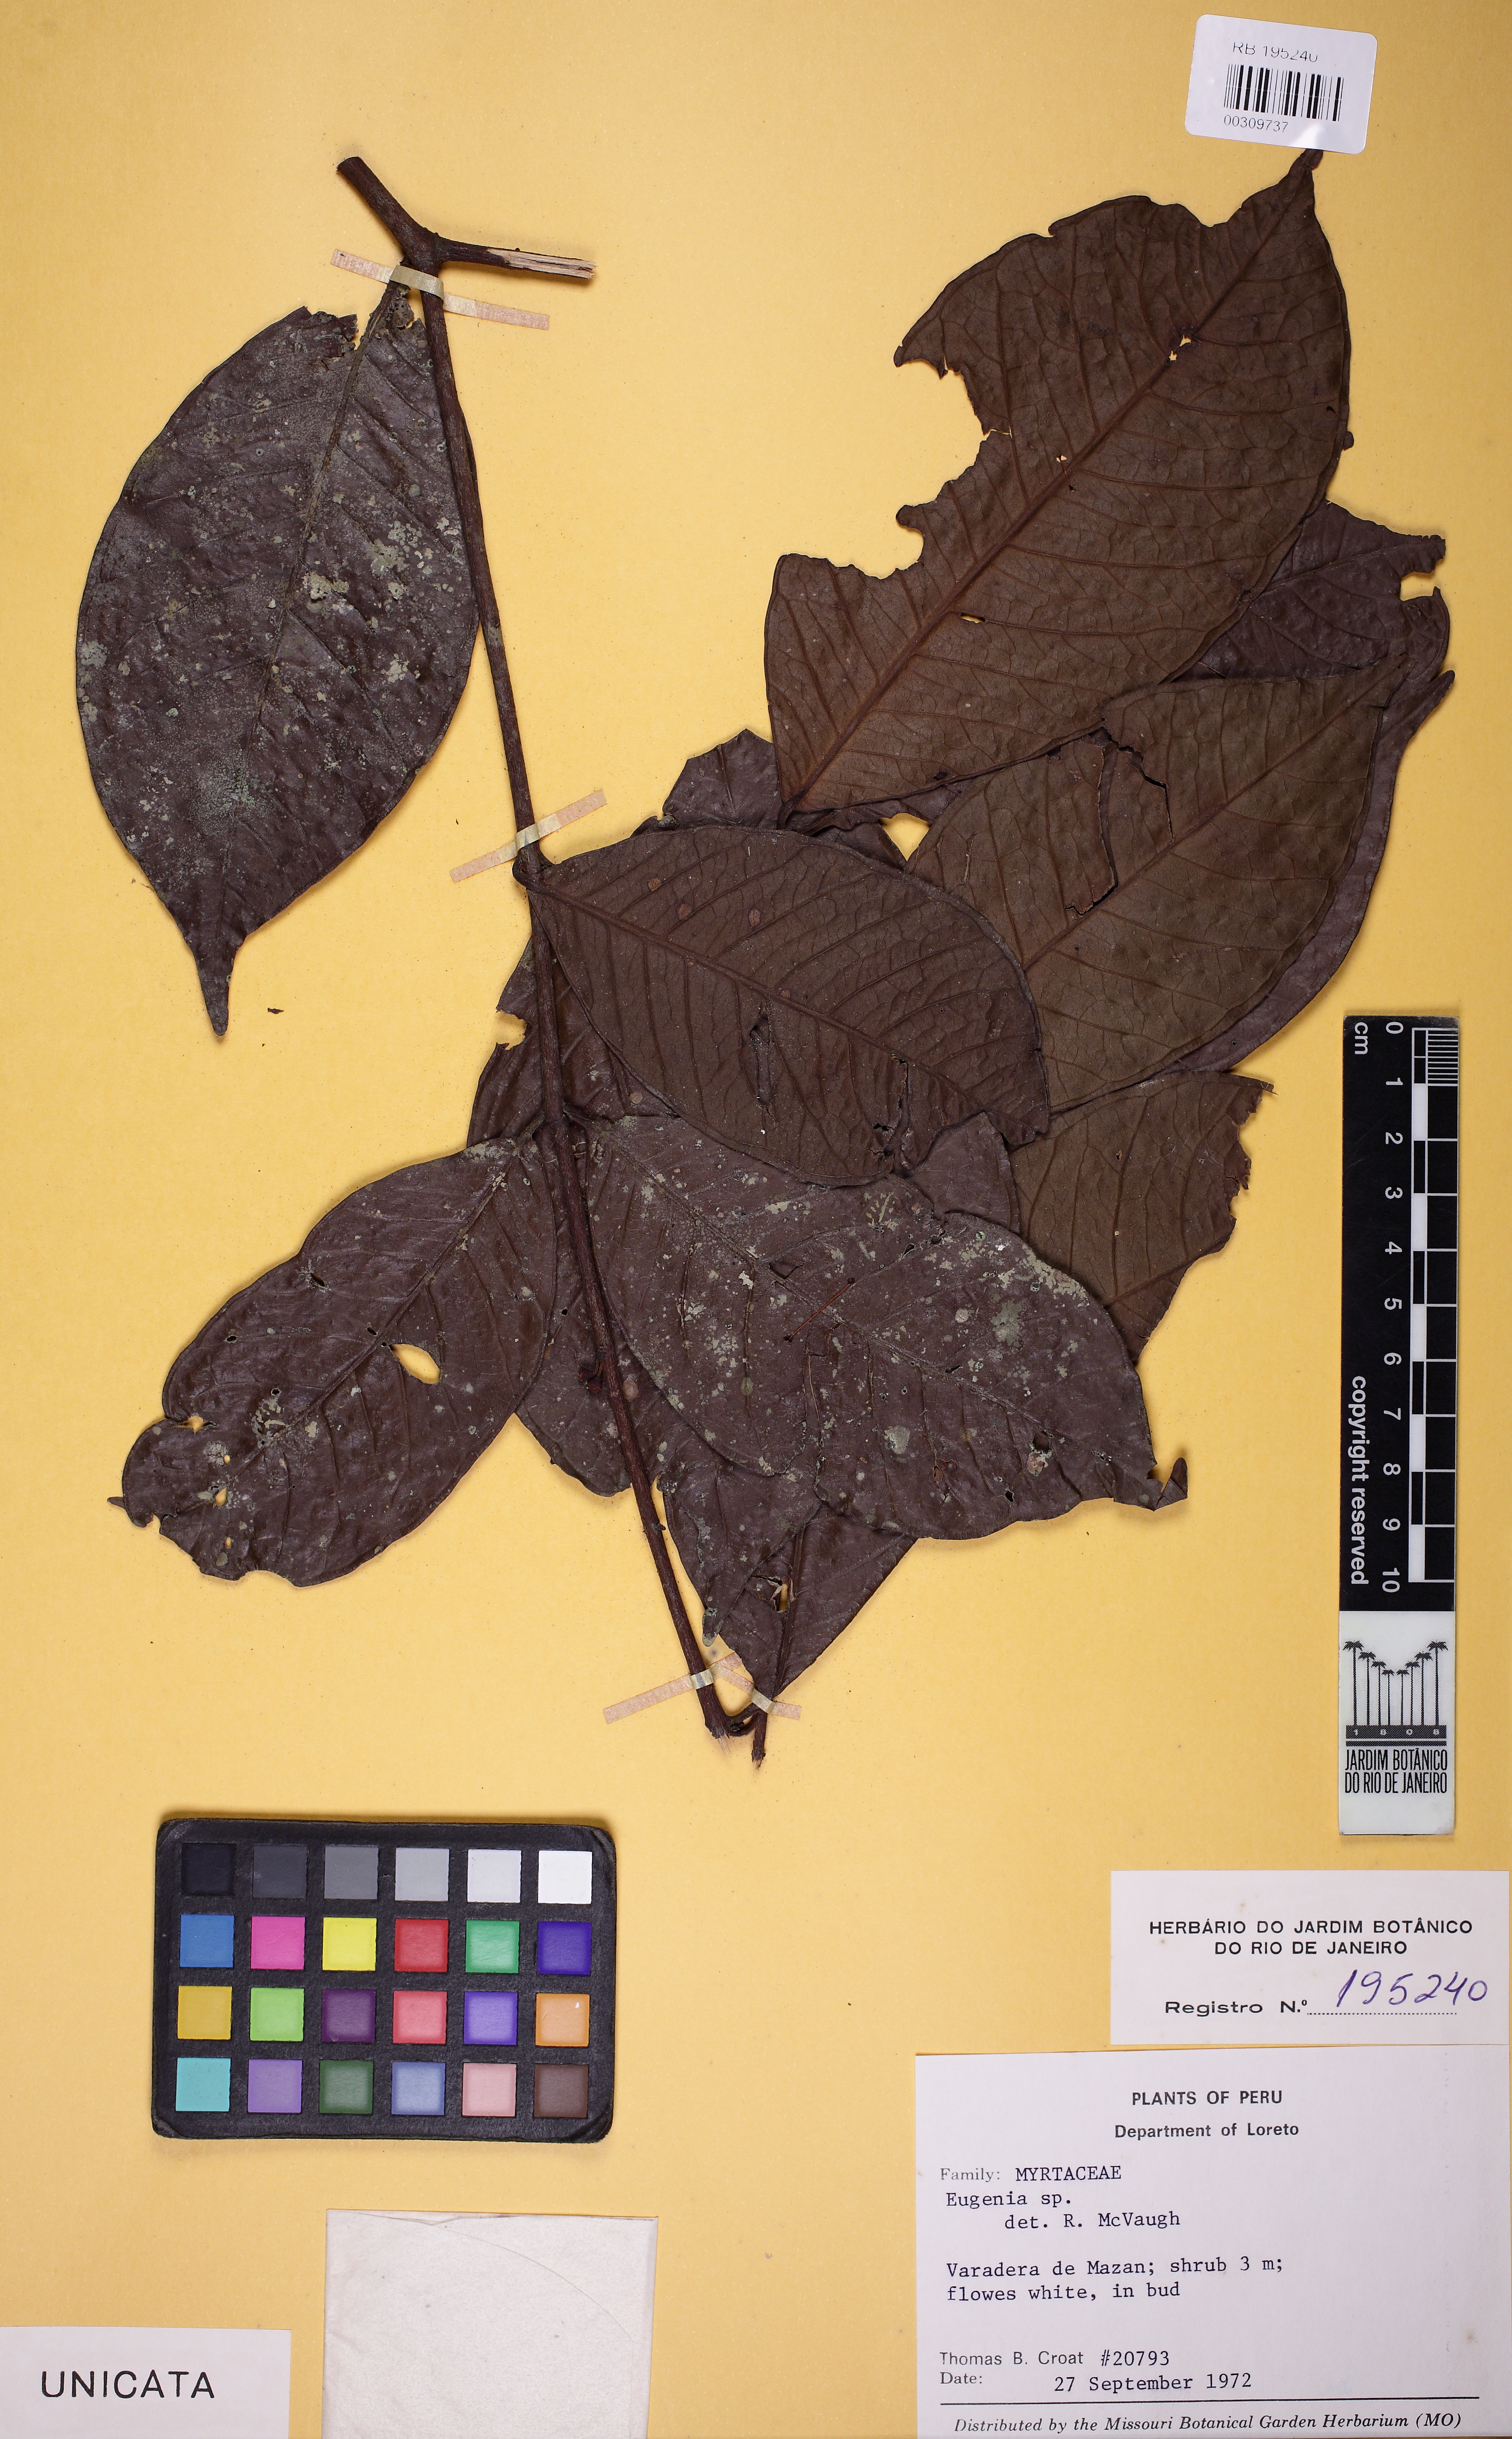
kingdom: Plantae
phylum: Tracheophyta
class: Magnoliopsida
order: Myrtales
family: Myrtaceae
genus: Eugenia
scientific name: Eugenia
